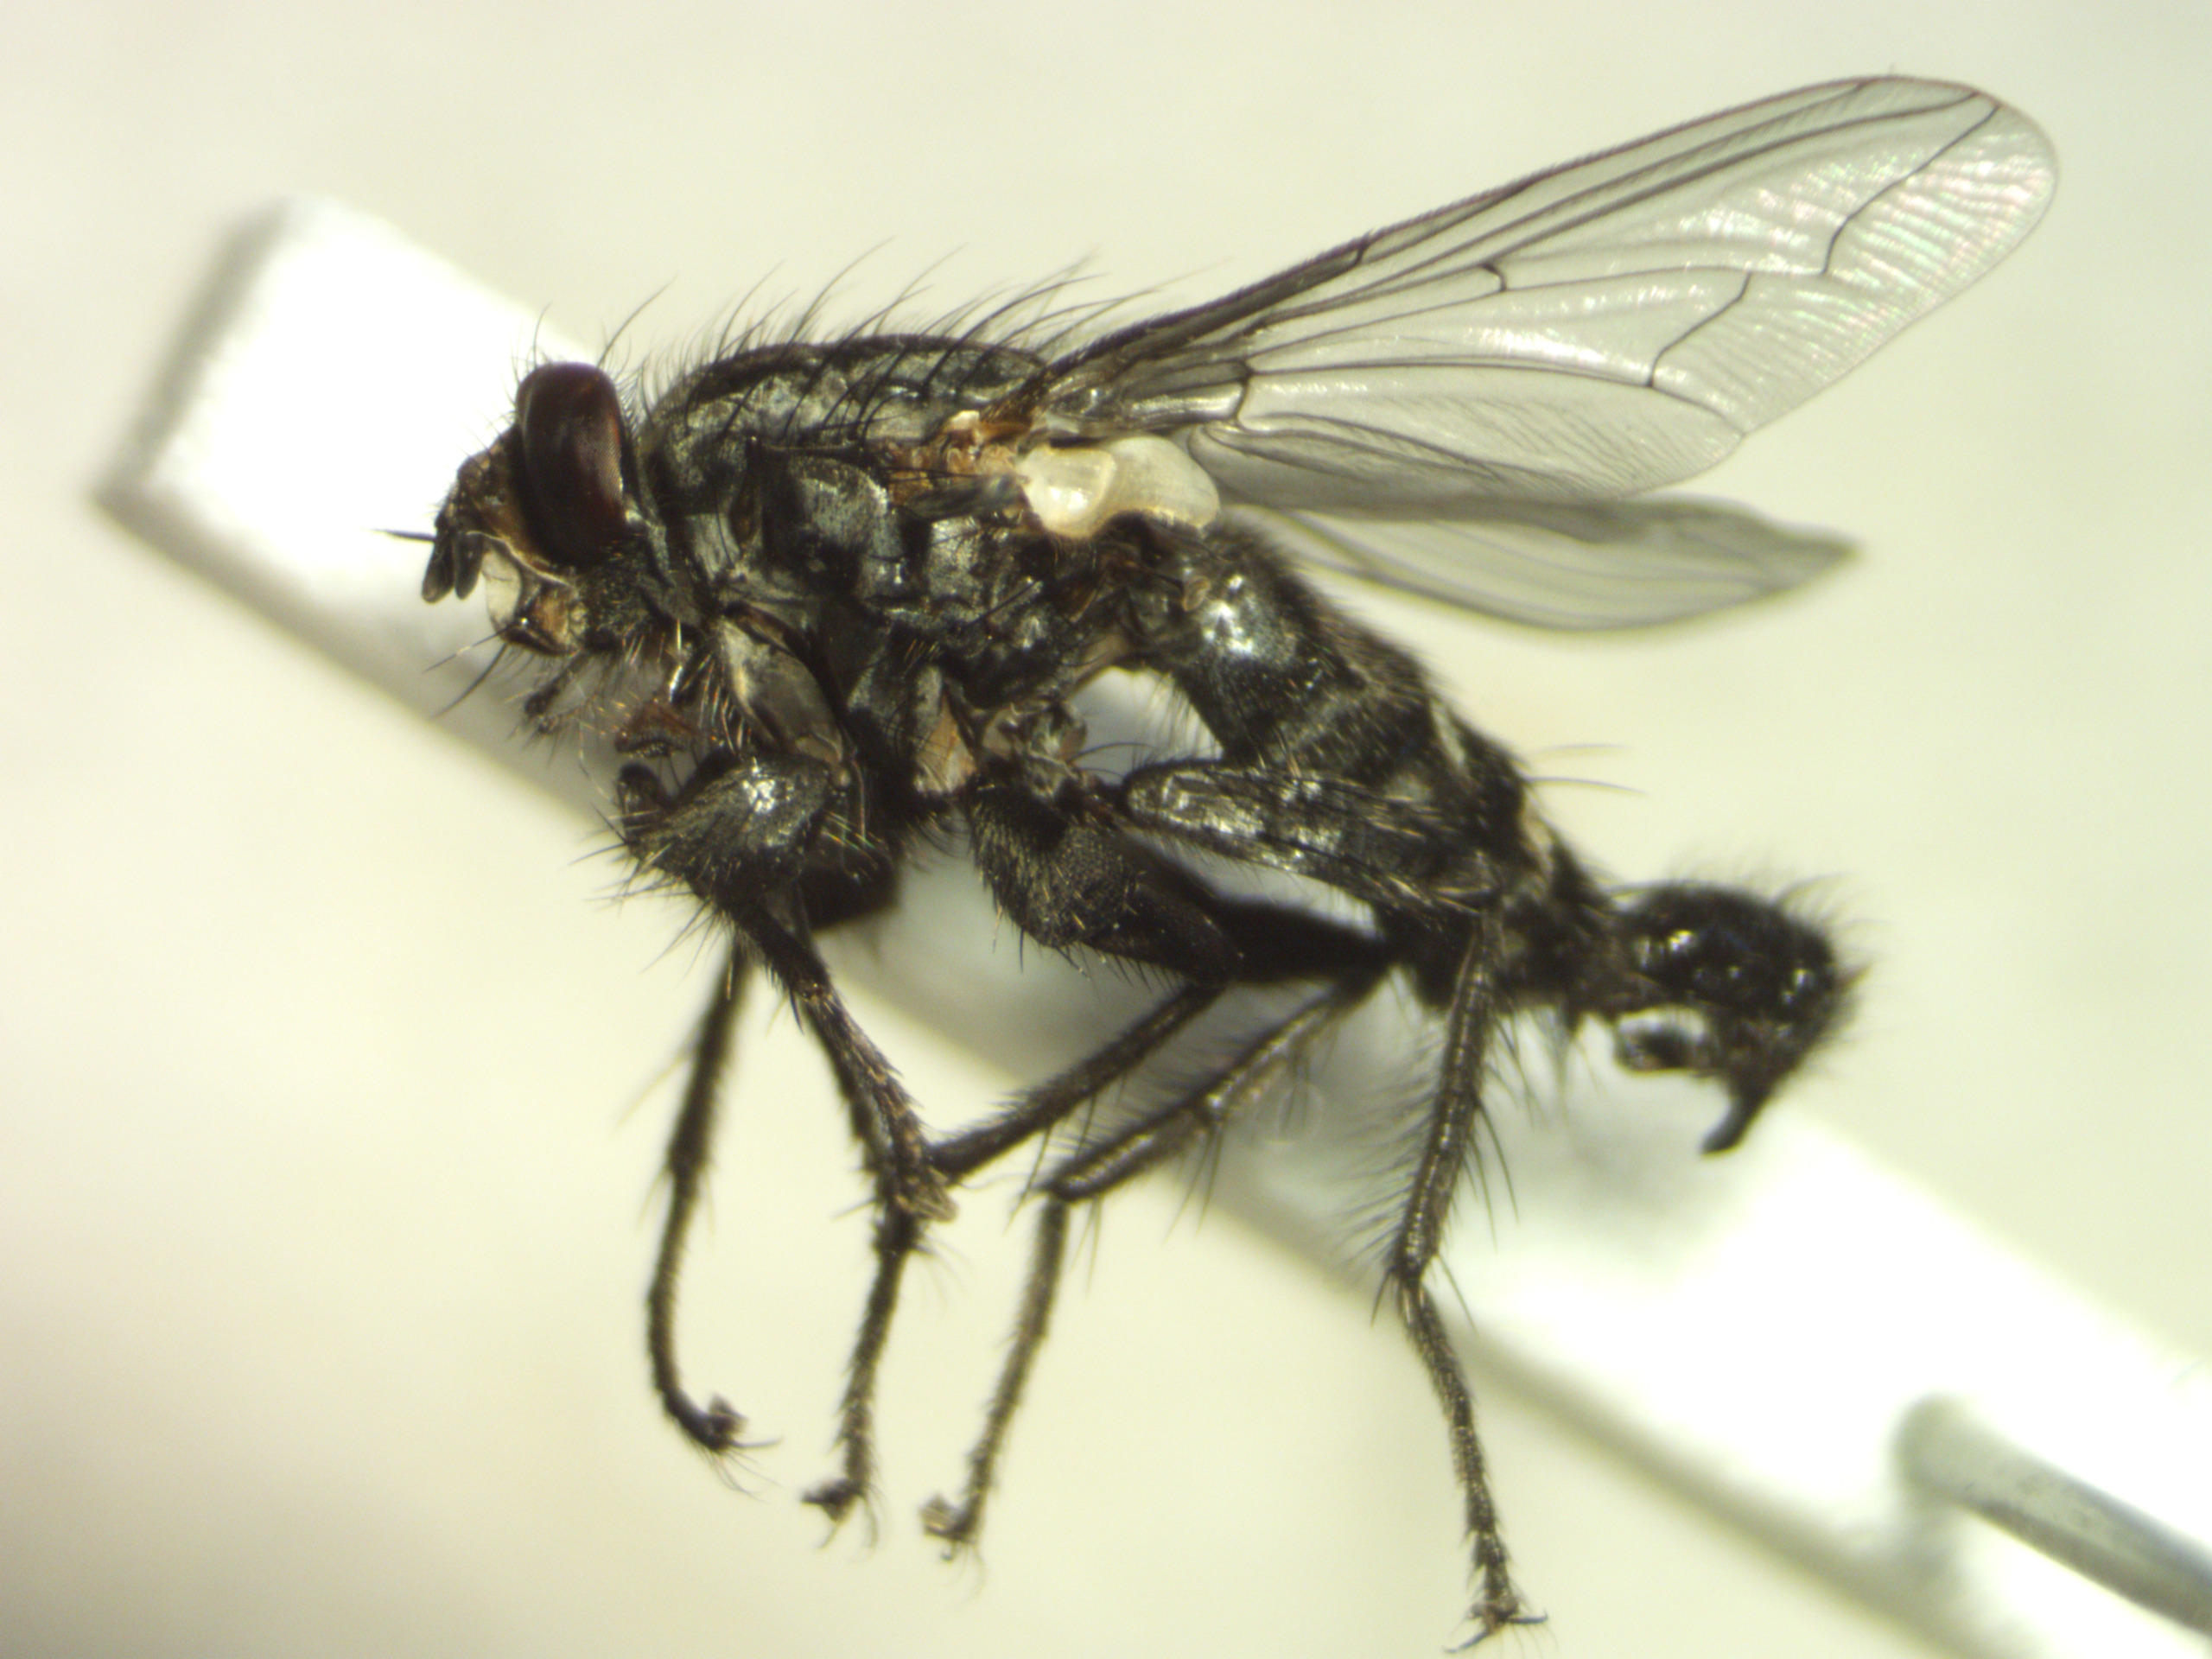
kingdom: Animalia
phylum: Arthropoda
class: Insecta
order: Diptera
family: Sarcophagidae
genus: Sarcophaga
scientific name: Sarcophaga lehmanni
